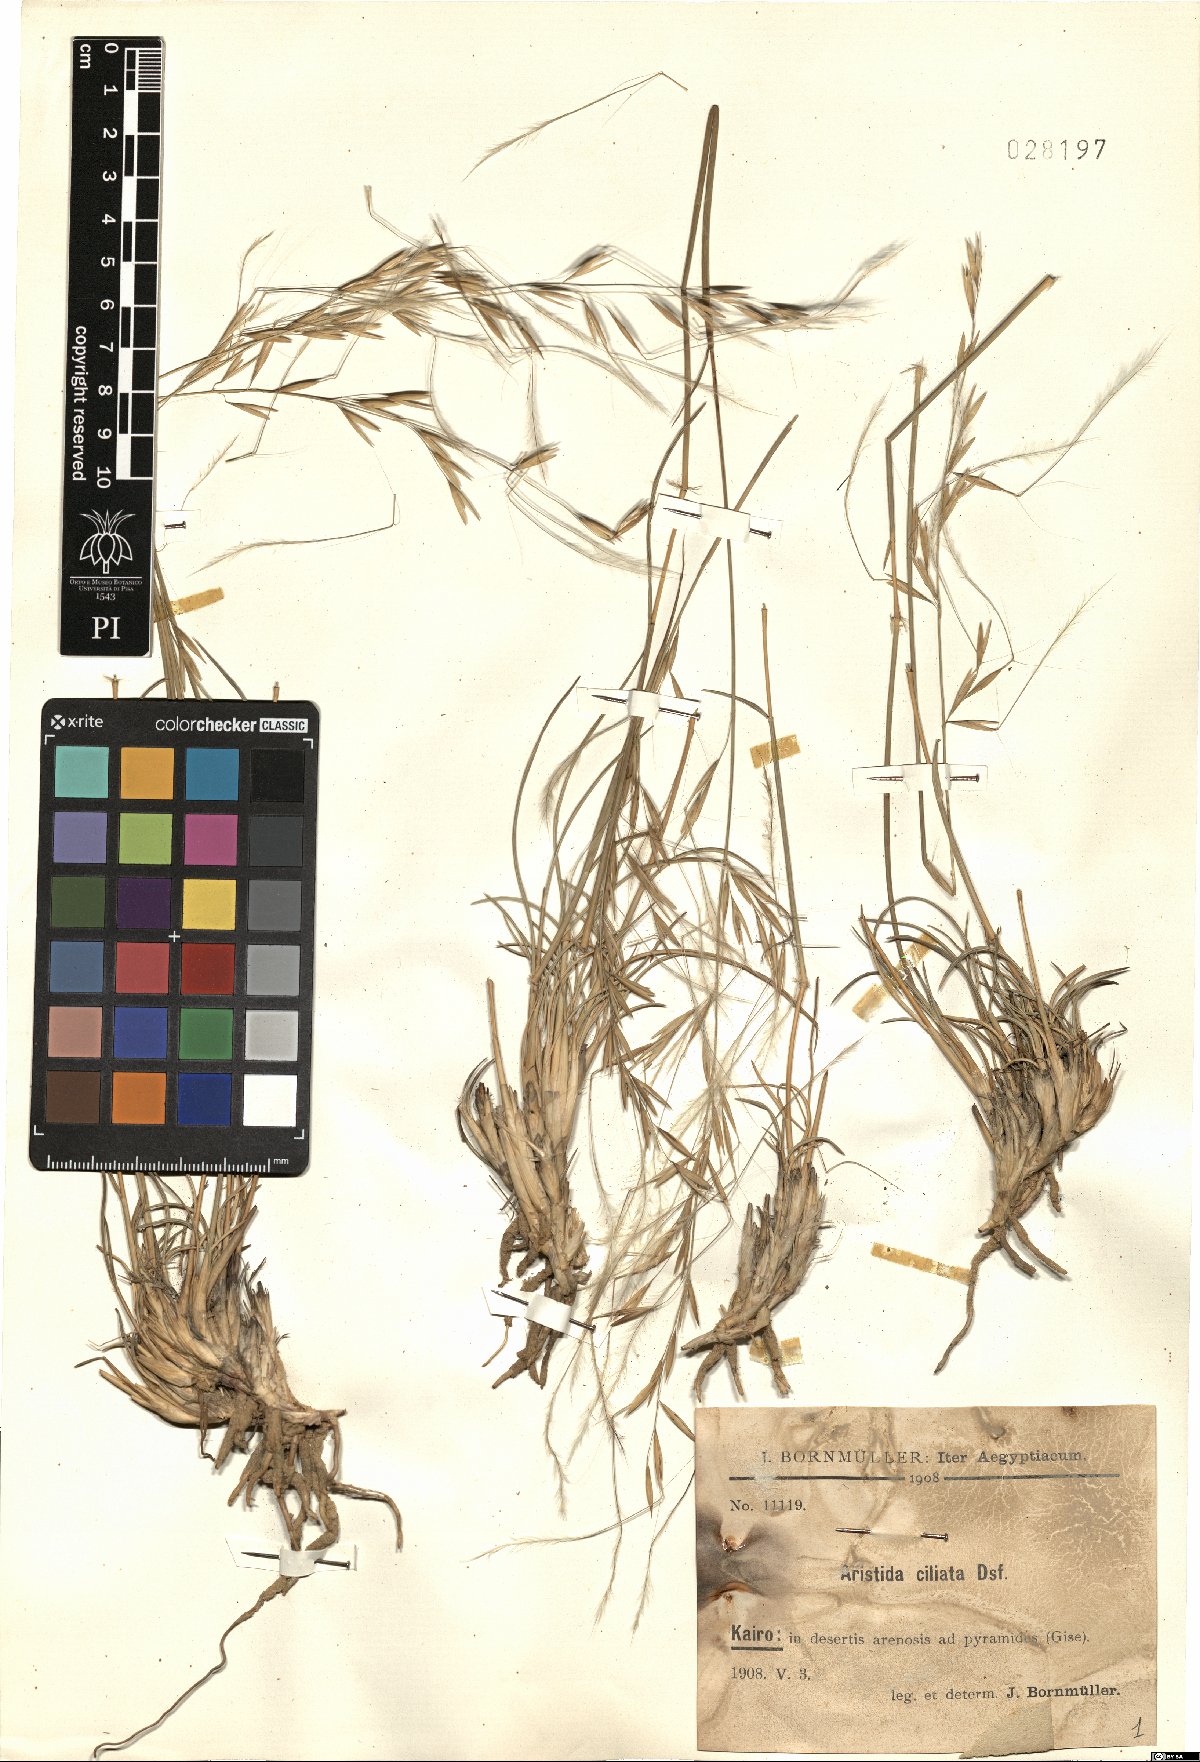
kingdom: Plantae
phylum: Tracheophyta
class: Liliopsida
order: Poales
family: Poaceae
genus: Stipagrostis
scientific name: Stipagrostis ciliata
